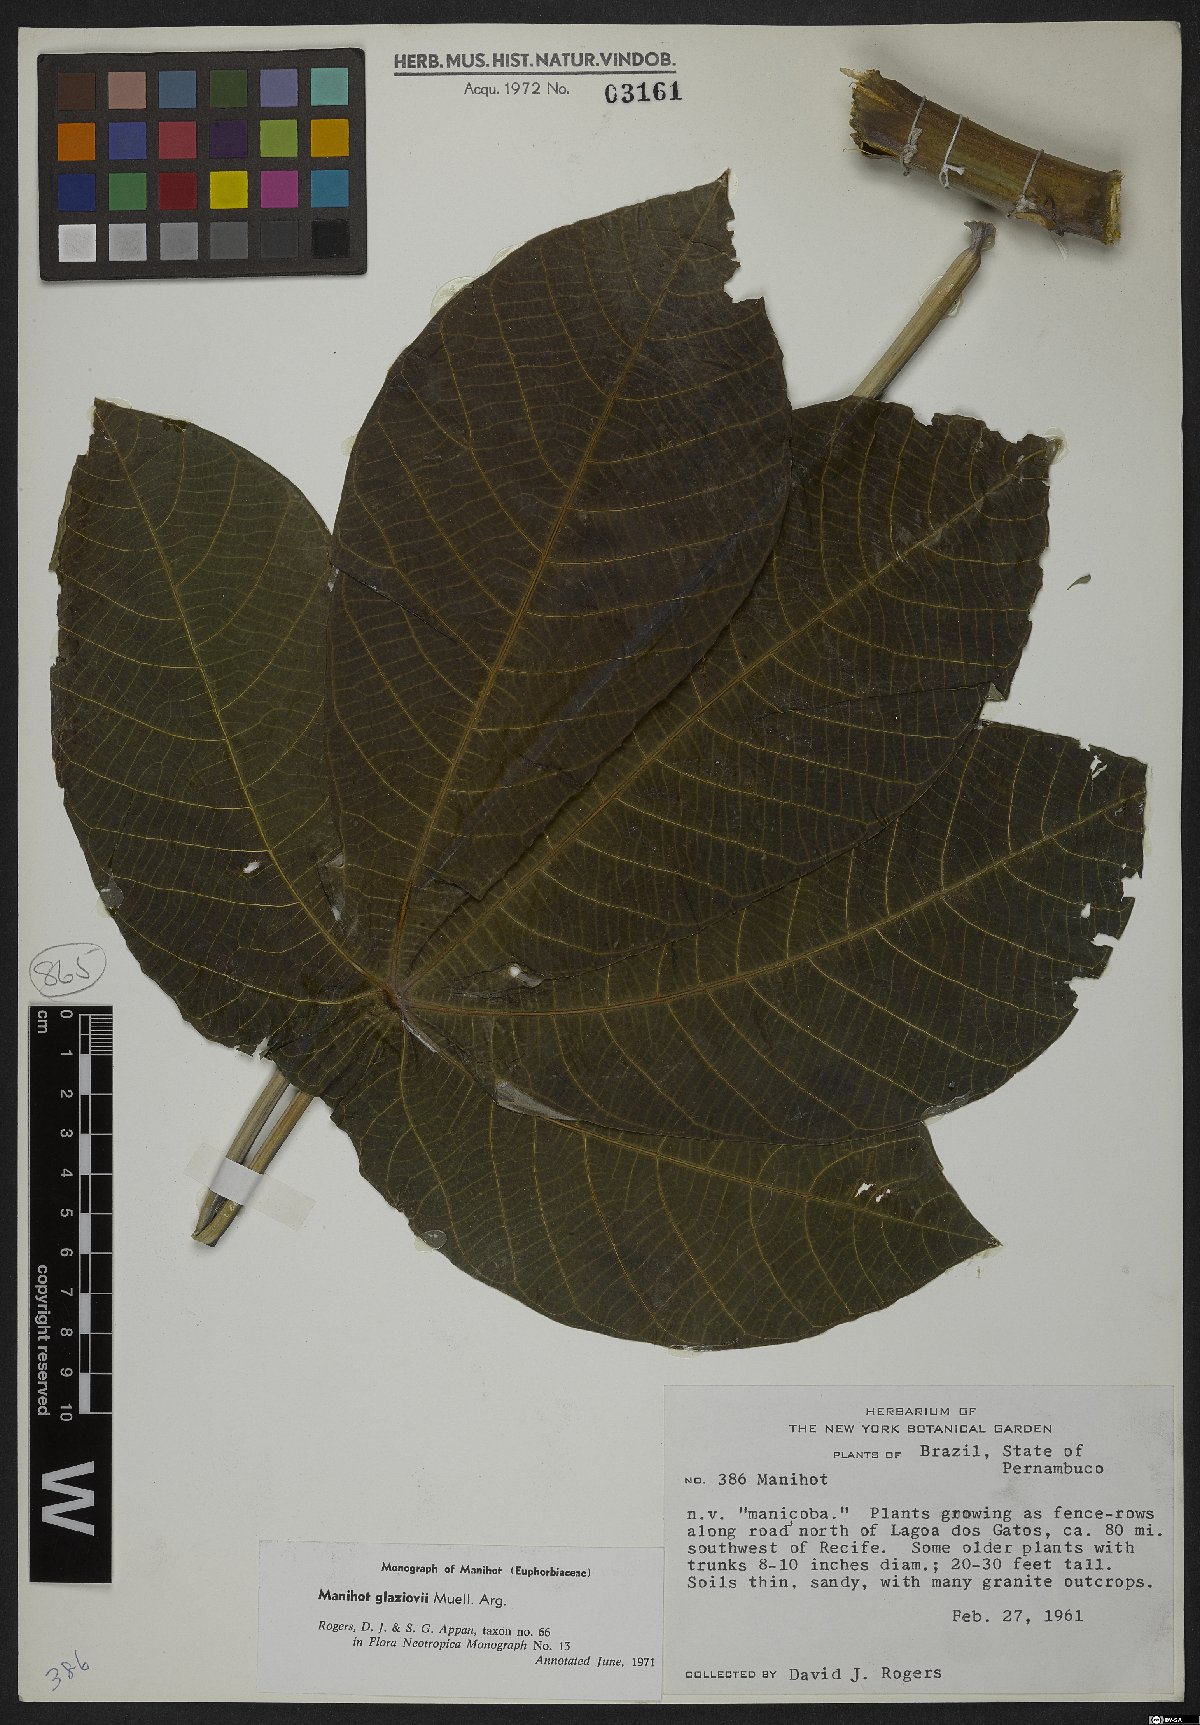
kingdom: Plantae
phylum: Tracheophyta
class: Magnoliopsida
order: Malpighiales
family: Euphorbiaceae
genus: Manihot
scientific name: Manihot carthagenensis
